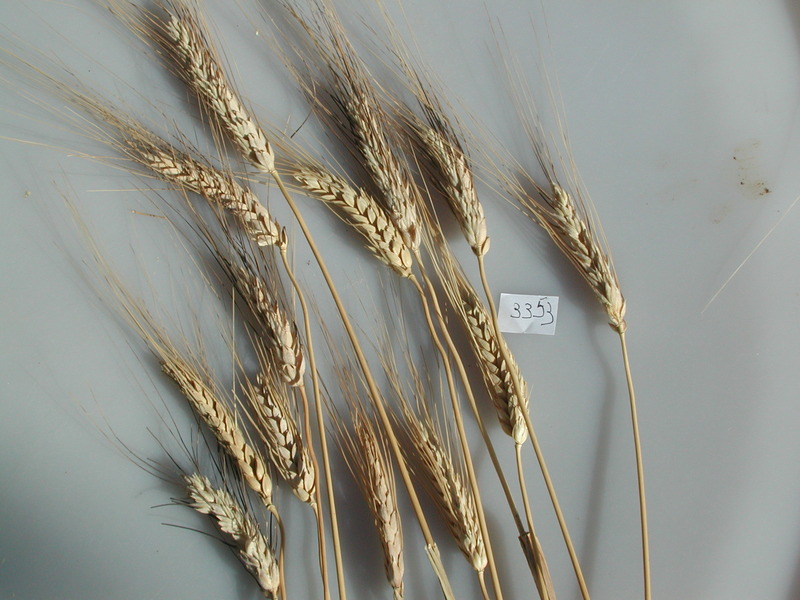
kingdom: Plantae
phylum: Tracheophyta
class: Liliopsida
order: Poales
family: Poaceae
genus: Triticum
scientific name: Triticum turgidum
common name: Wheat
